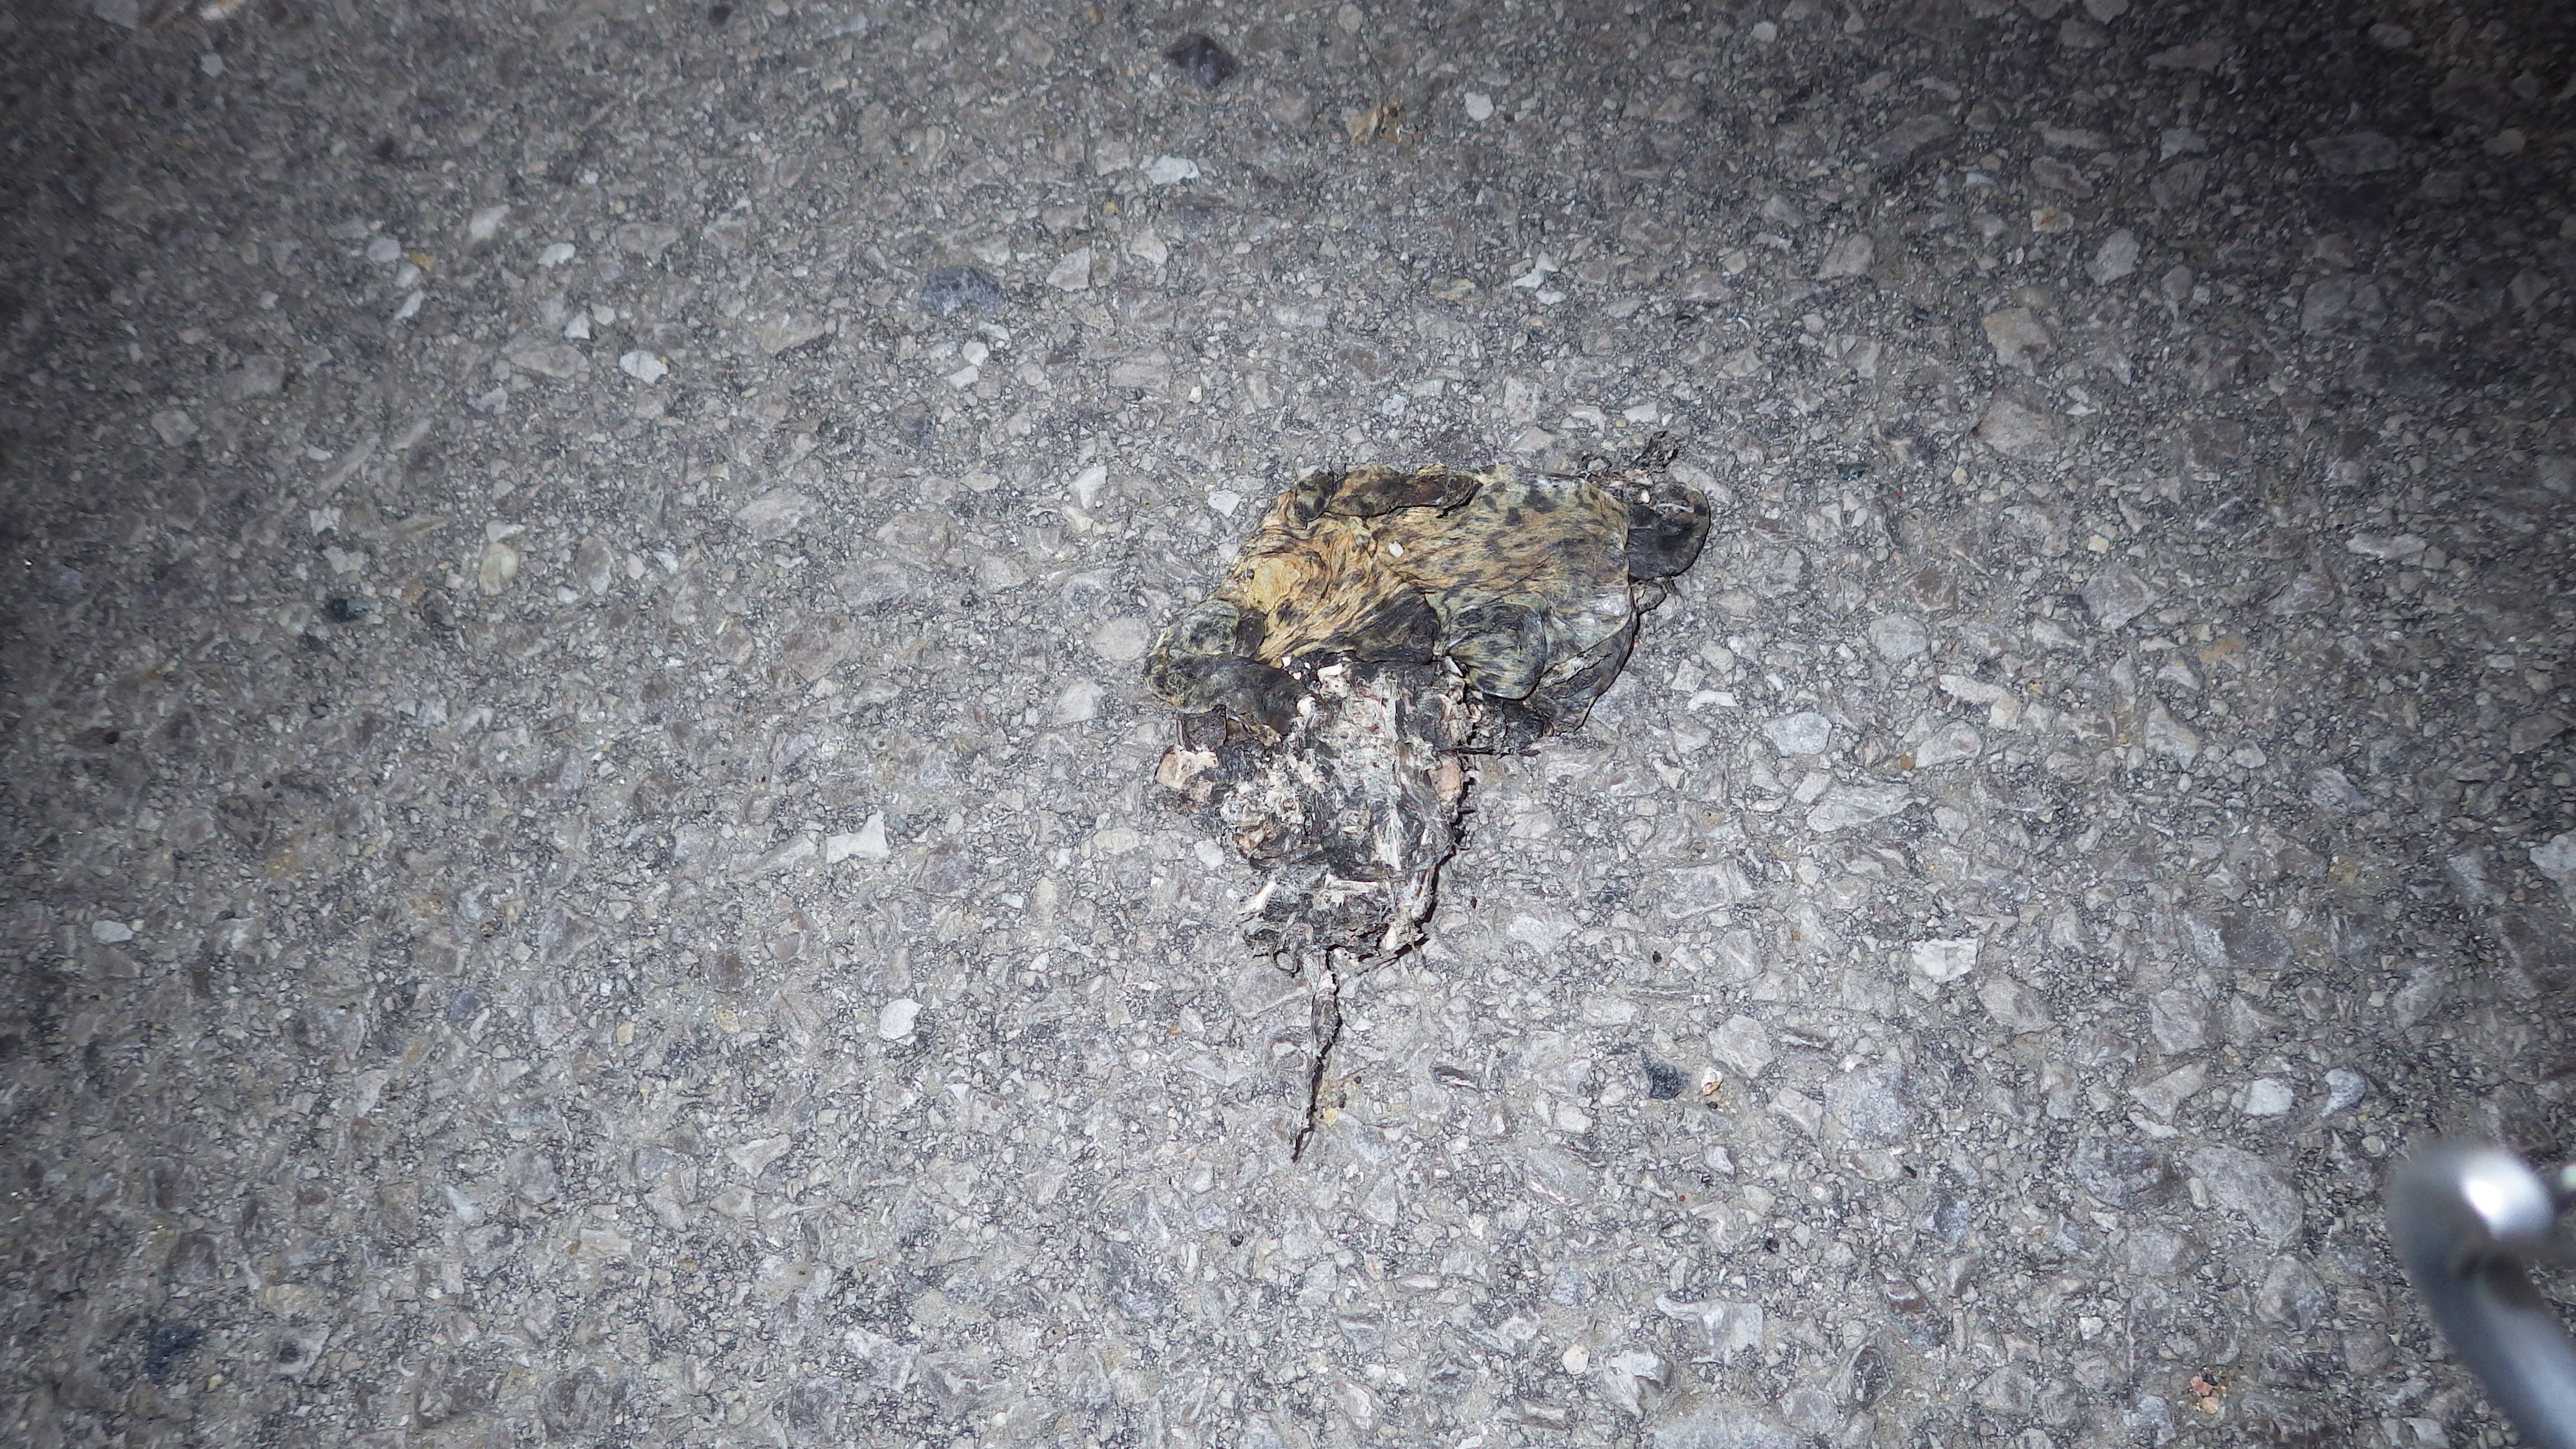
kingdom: Animalia
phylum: Chordata
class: Amphibia
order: Anura
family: Bufonidae
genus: Bufo
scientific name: Bufo bufo
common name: Common toad
